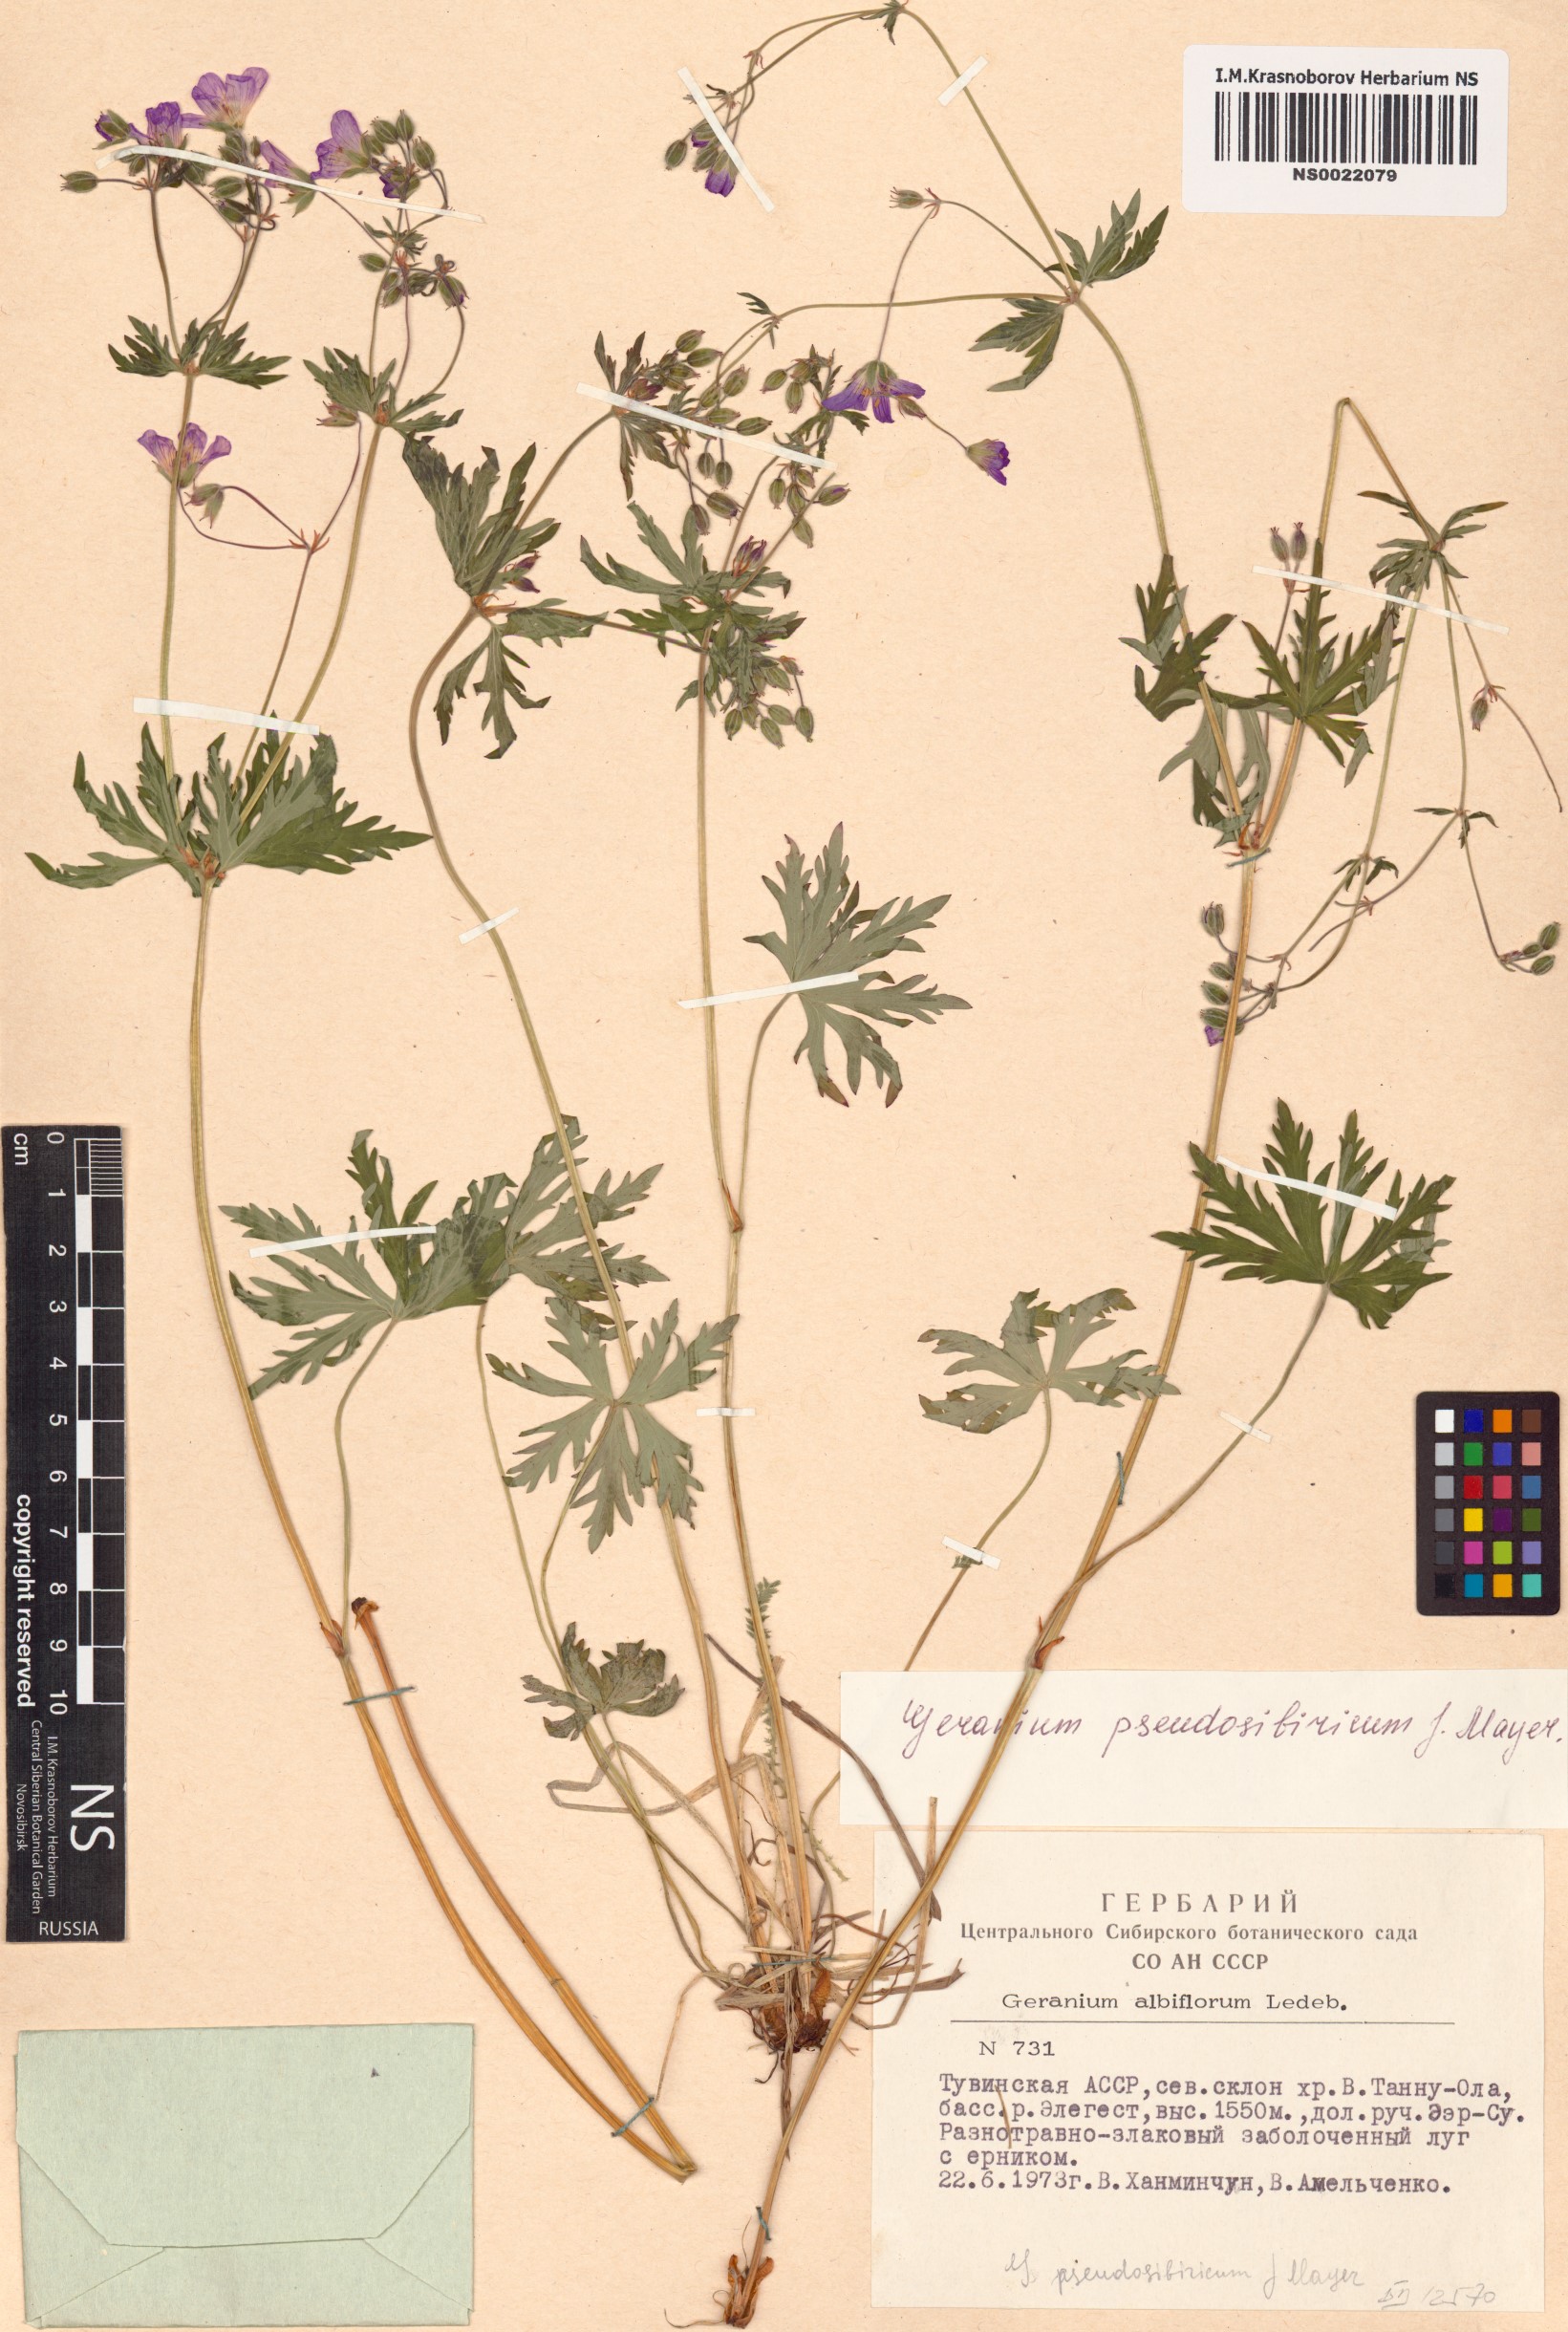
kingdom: Plantae
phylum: Tracheophyta
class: Magnoliopsida
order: Geraniales
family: Geraniaceae
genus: Geranium
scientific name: Geranium pseudosibiricum
